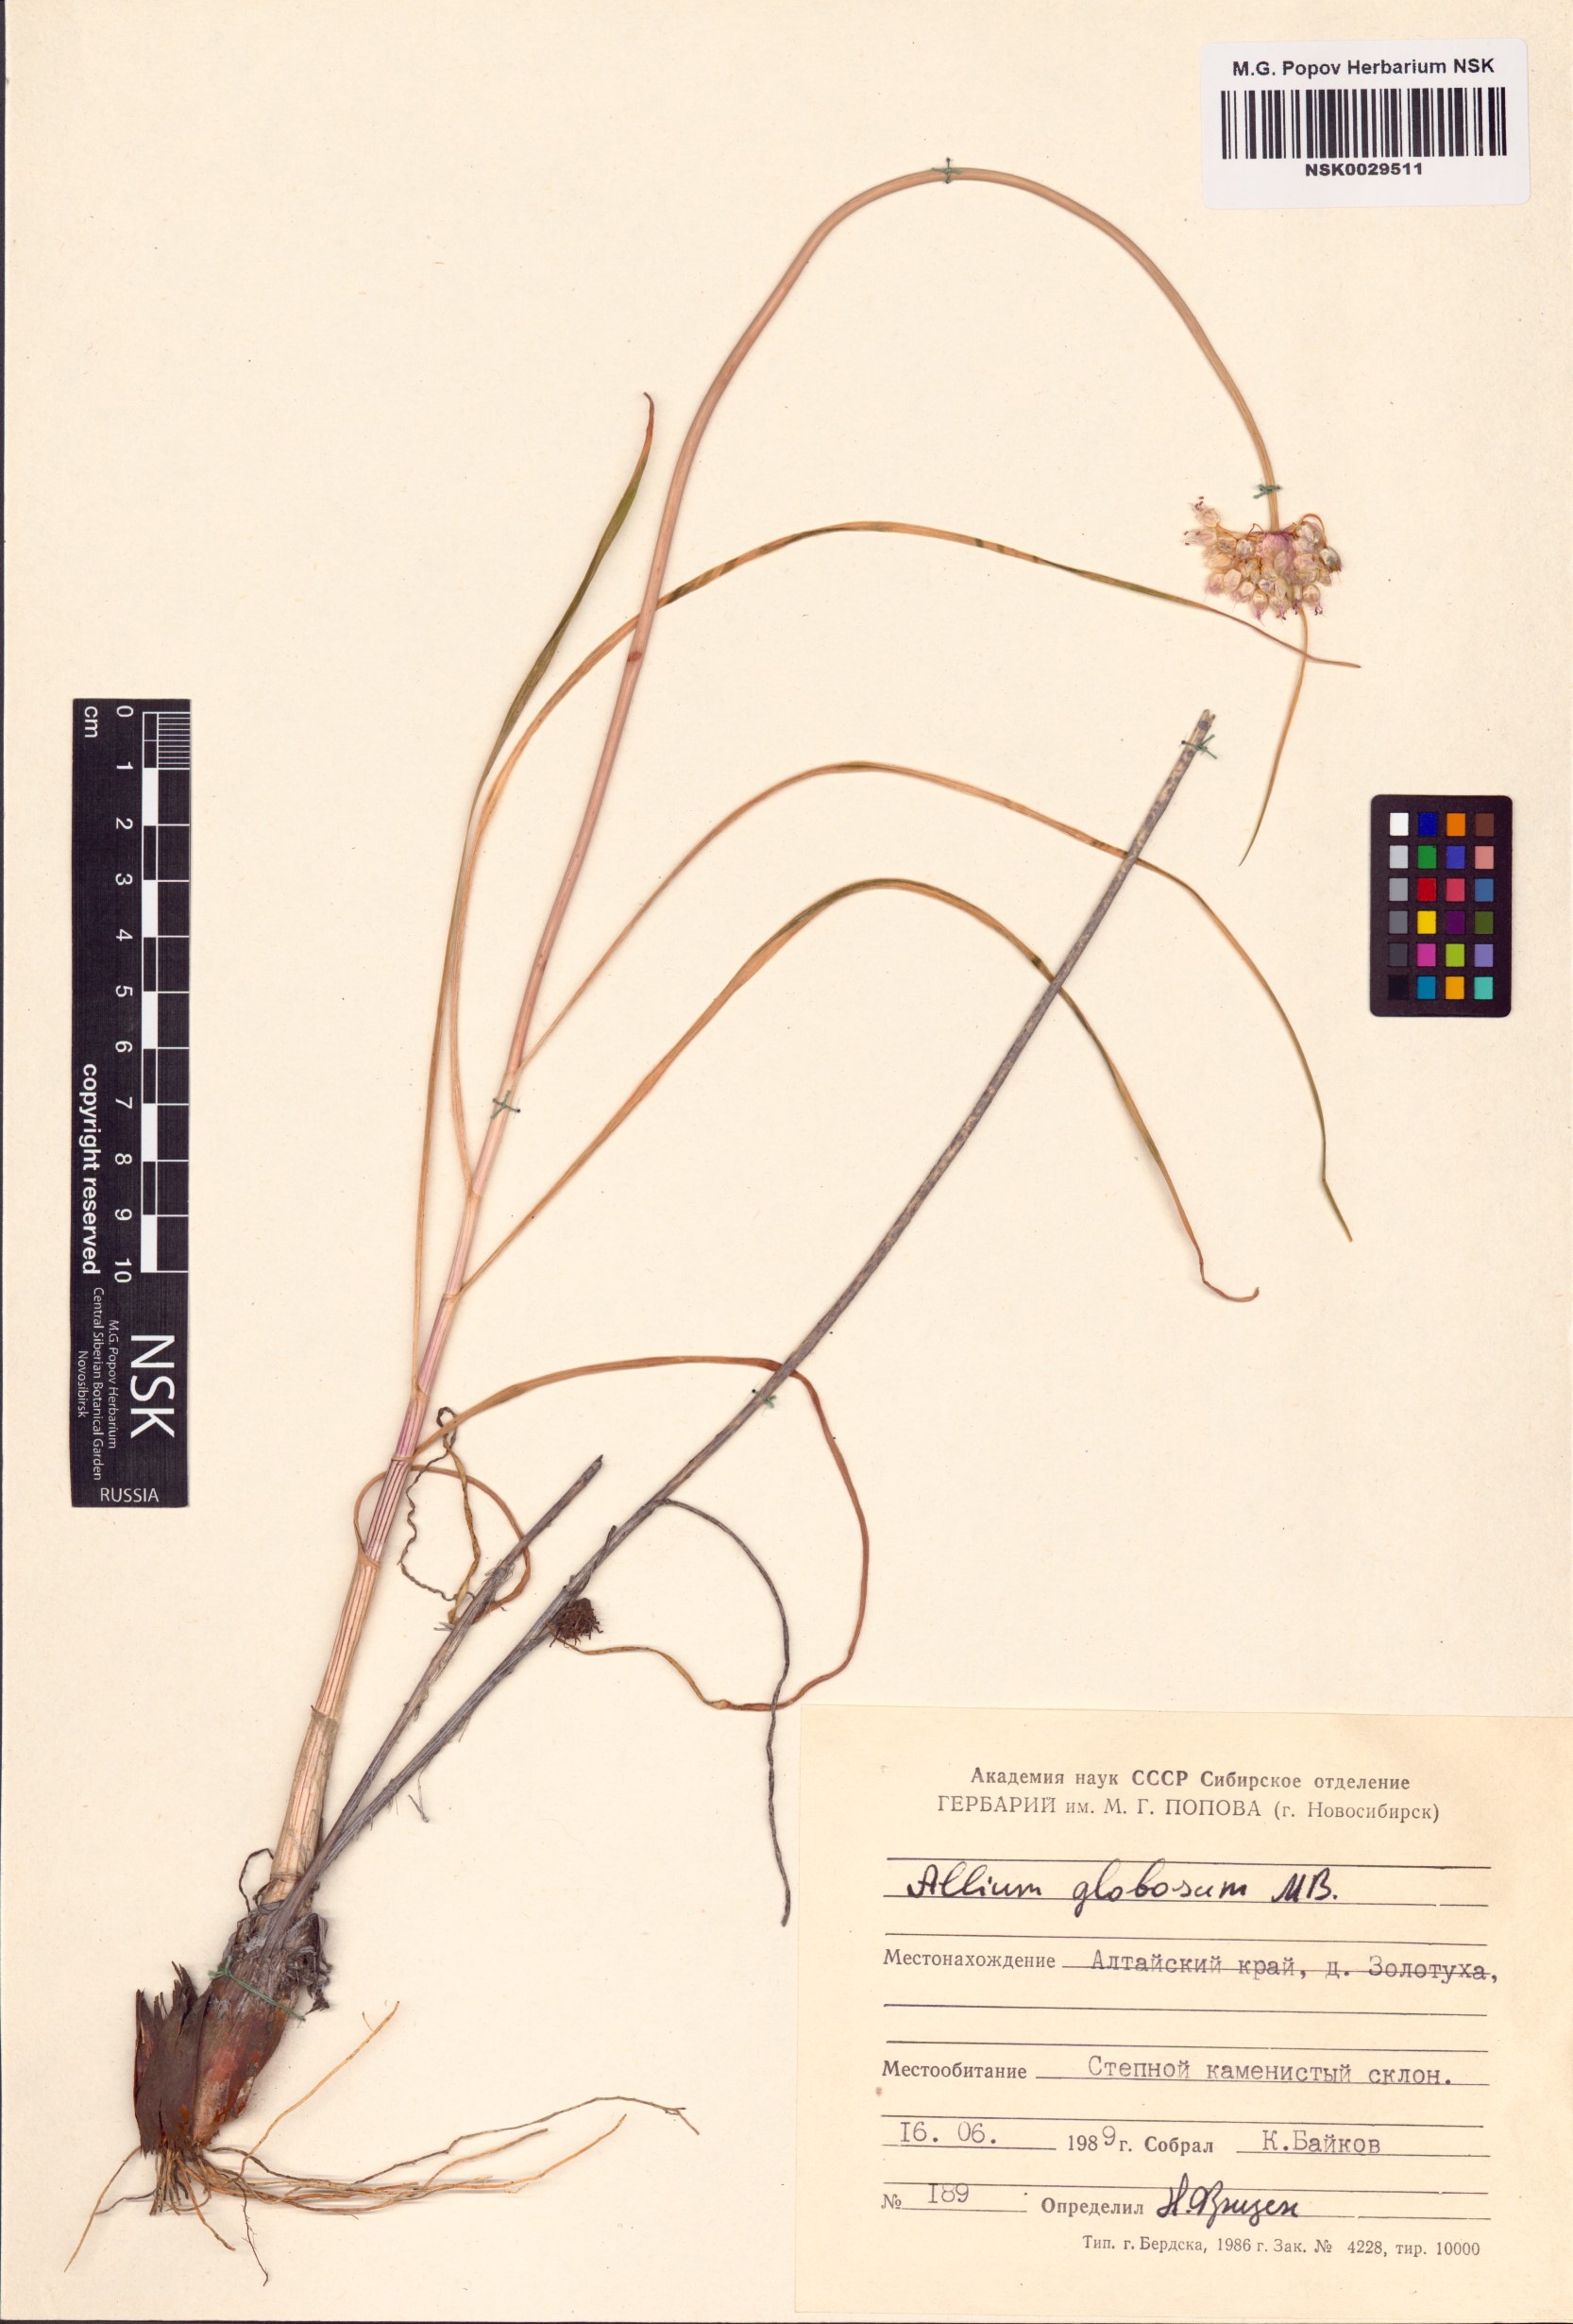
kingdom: Plantae
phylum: Tracheophyta
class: Liliopsida
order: Asparagales
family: Amaryllidaceae
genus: Allium
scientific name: Allium saxatile
